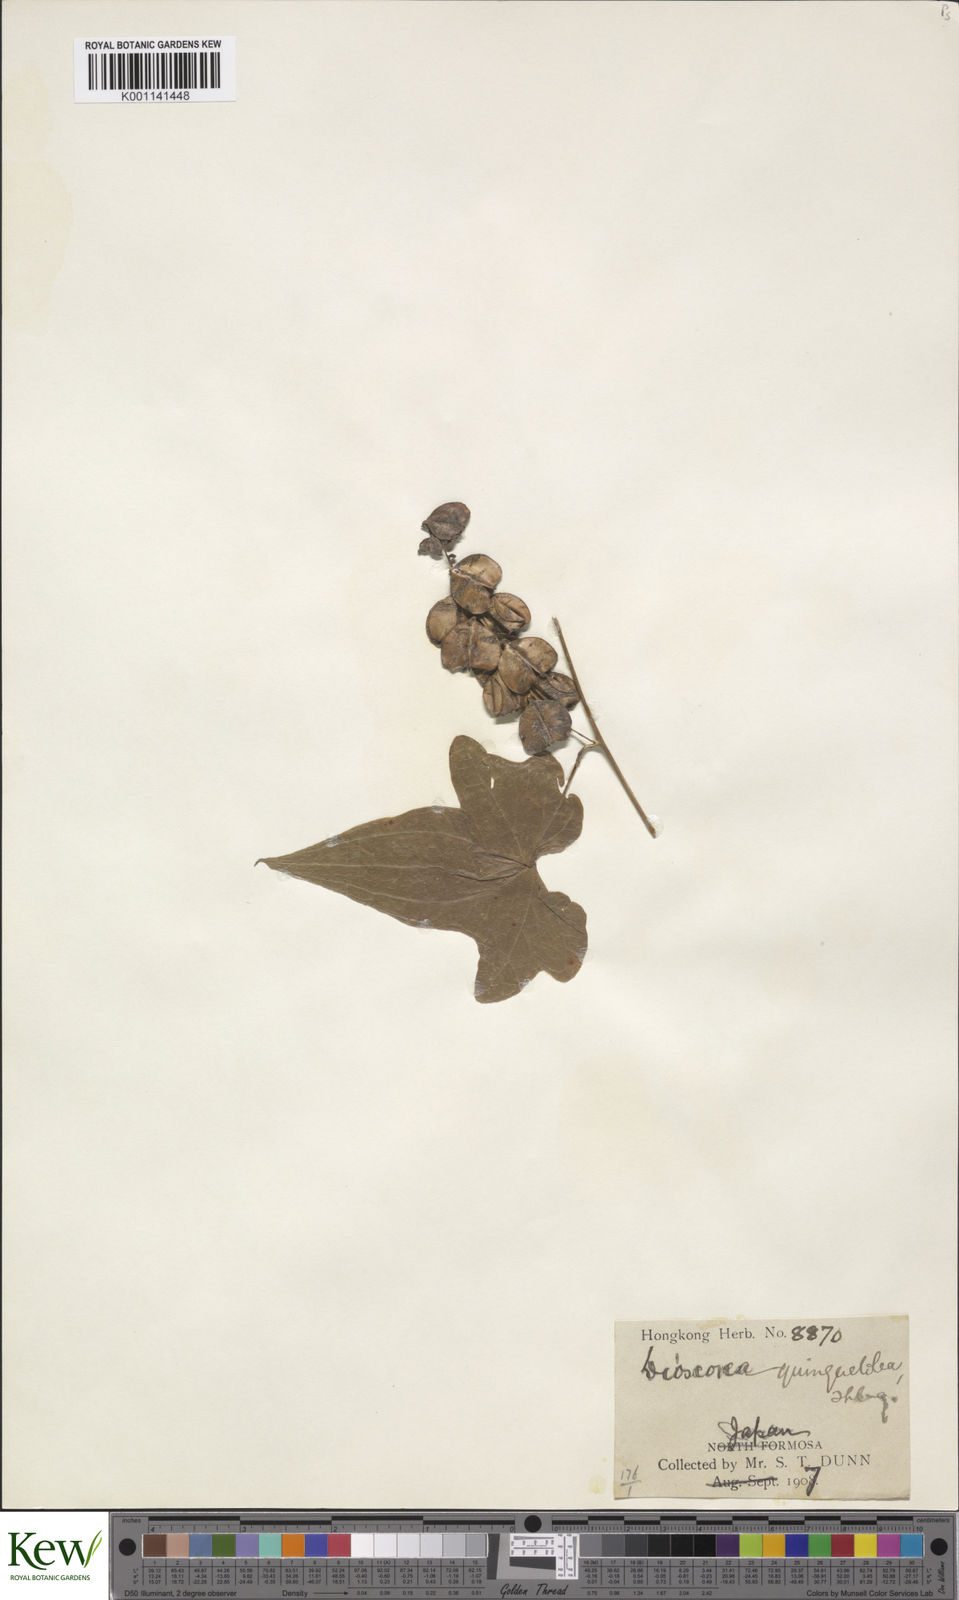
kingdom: Plantae
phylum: Tracheophyta
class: Liliopsida
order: Dioscoreales
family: Dioscoreaceae
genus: Dioscorea
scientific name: Dioscorea quinquelobata
